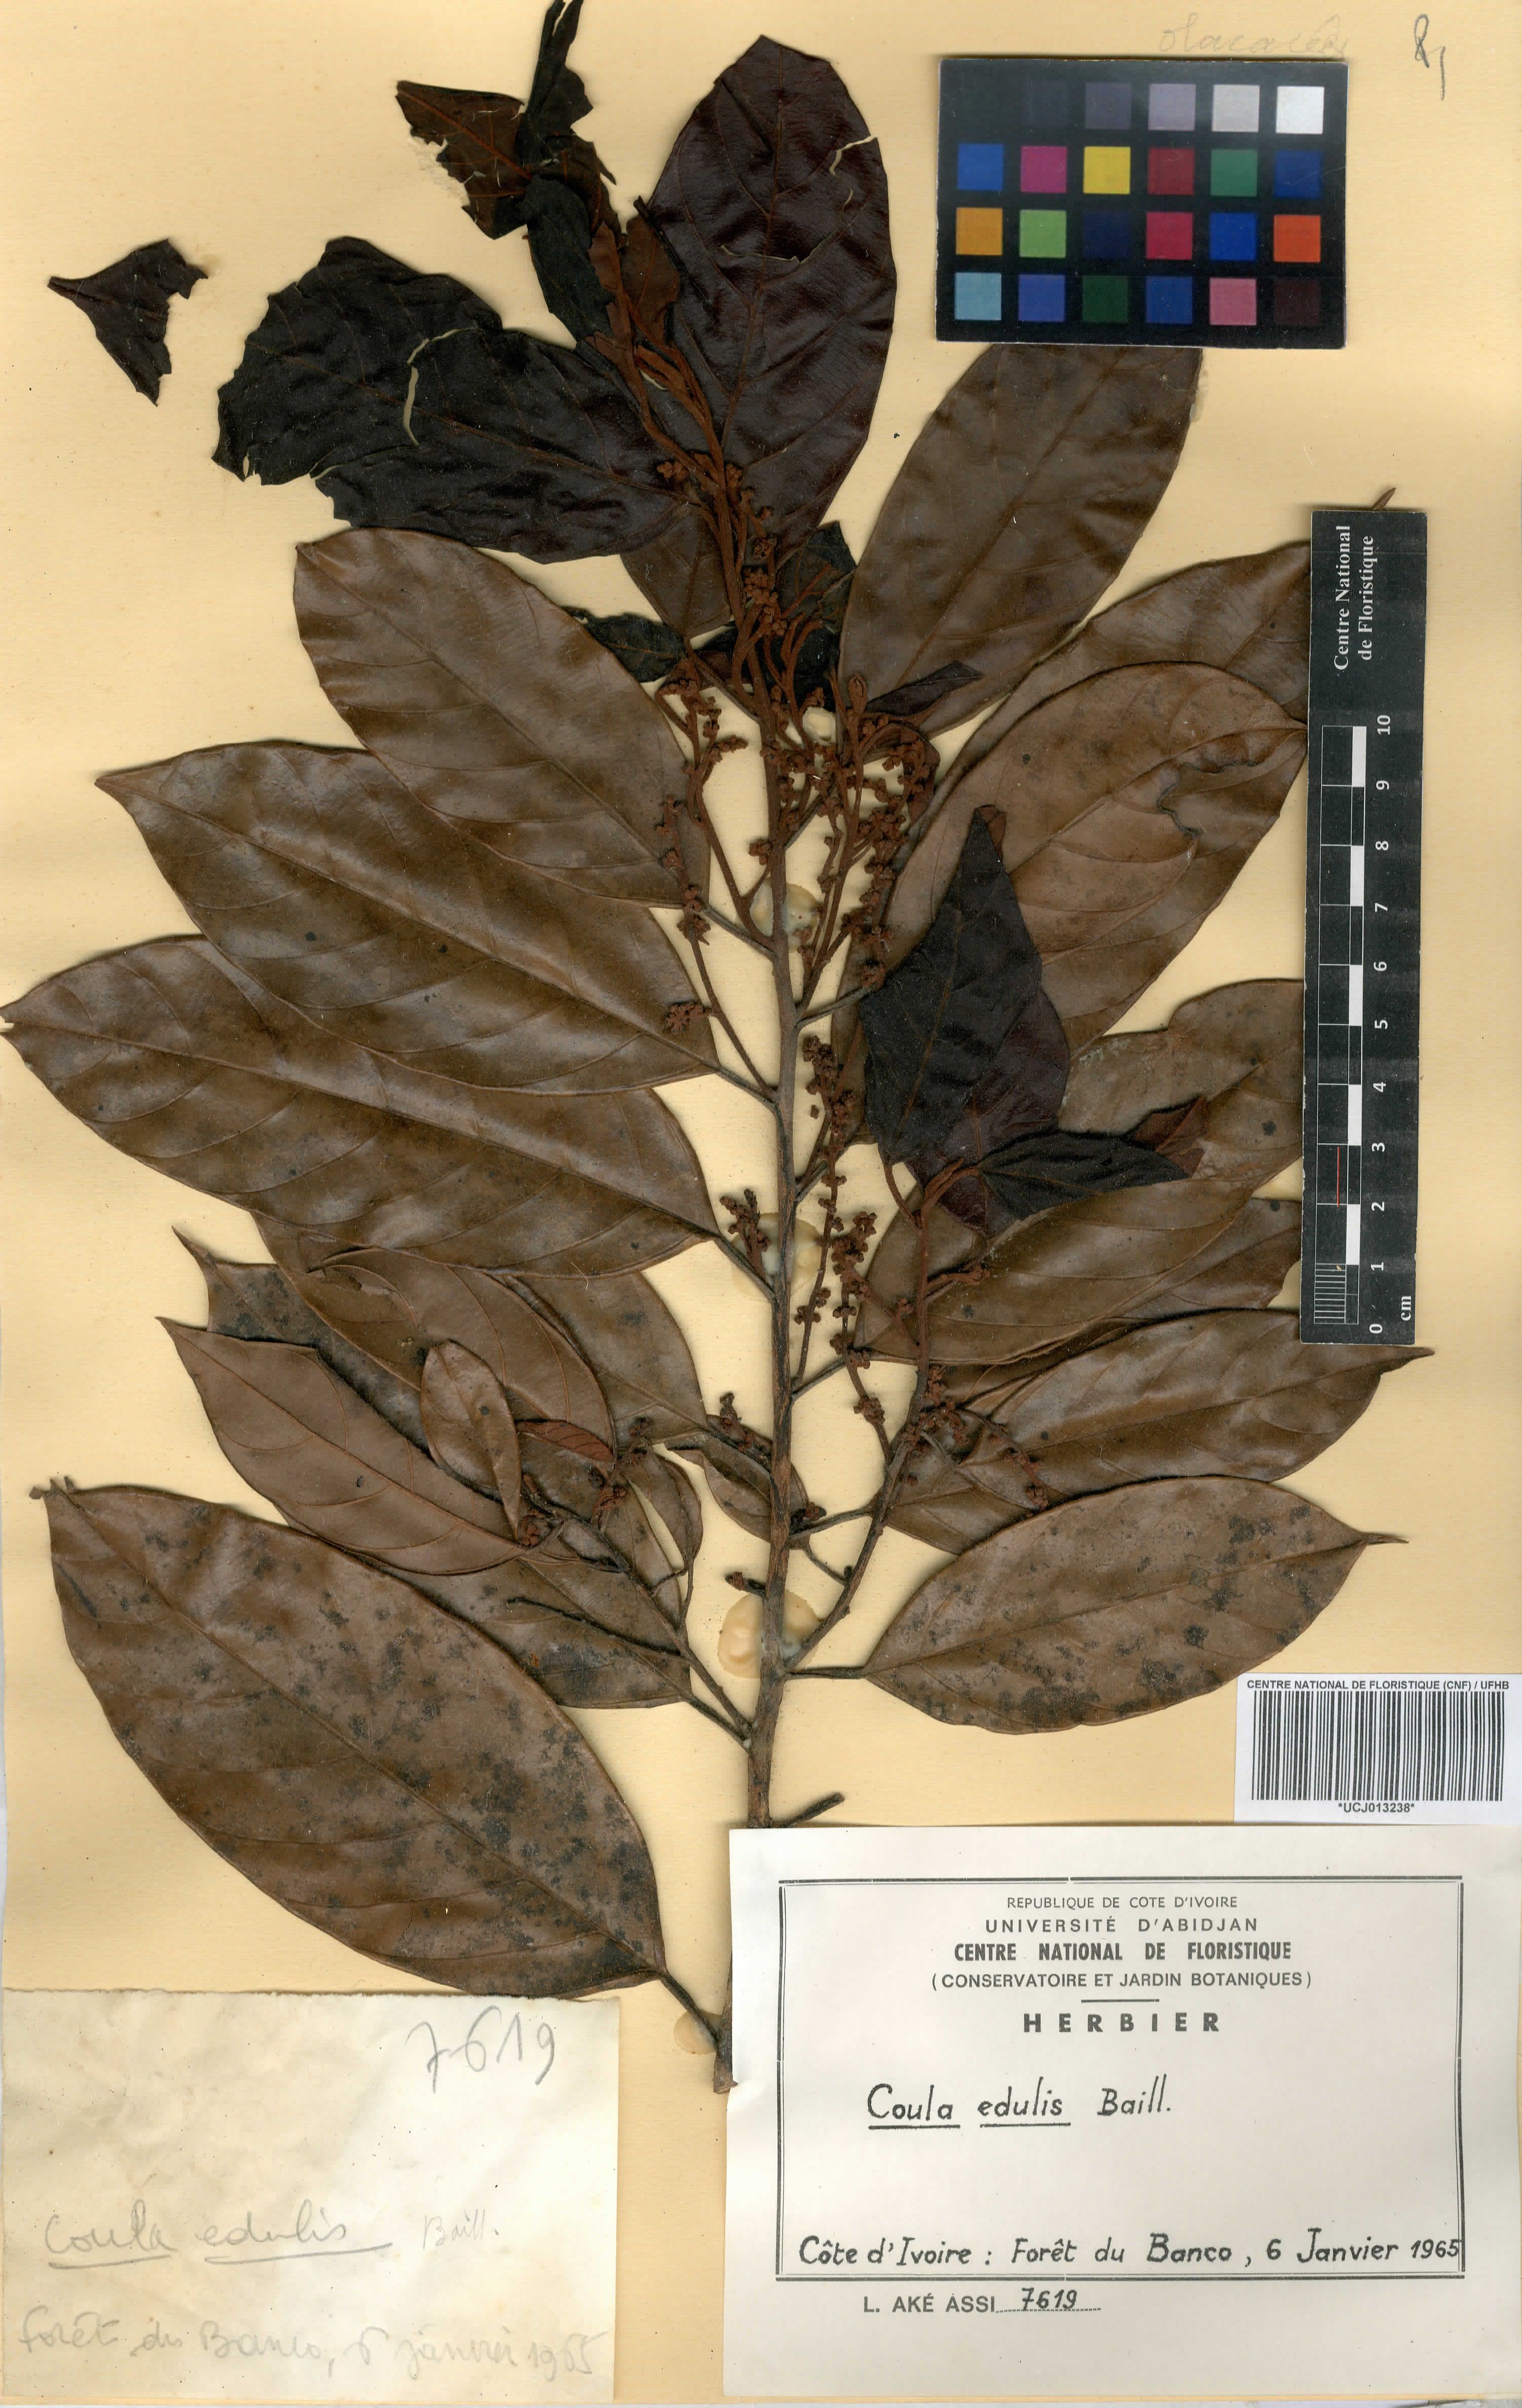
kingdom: Plantae
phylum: Tracheophyta
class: Magnoliopsida
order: Santalales
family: Coulaceae
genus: Coula
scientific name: Coula edulis
